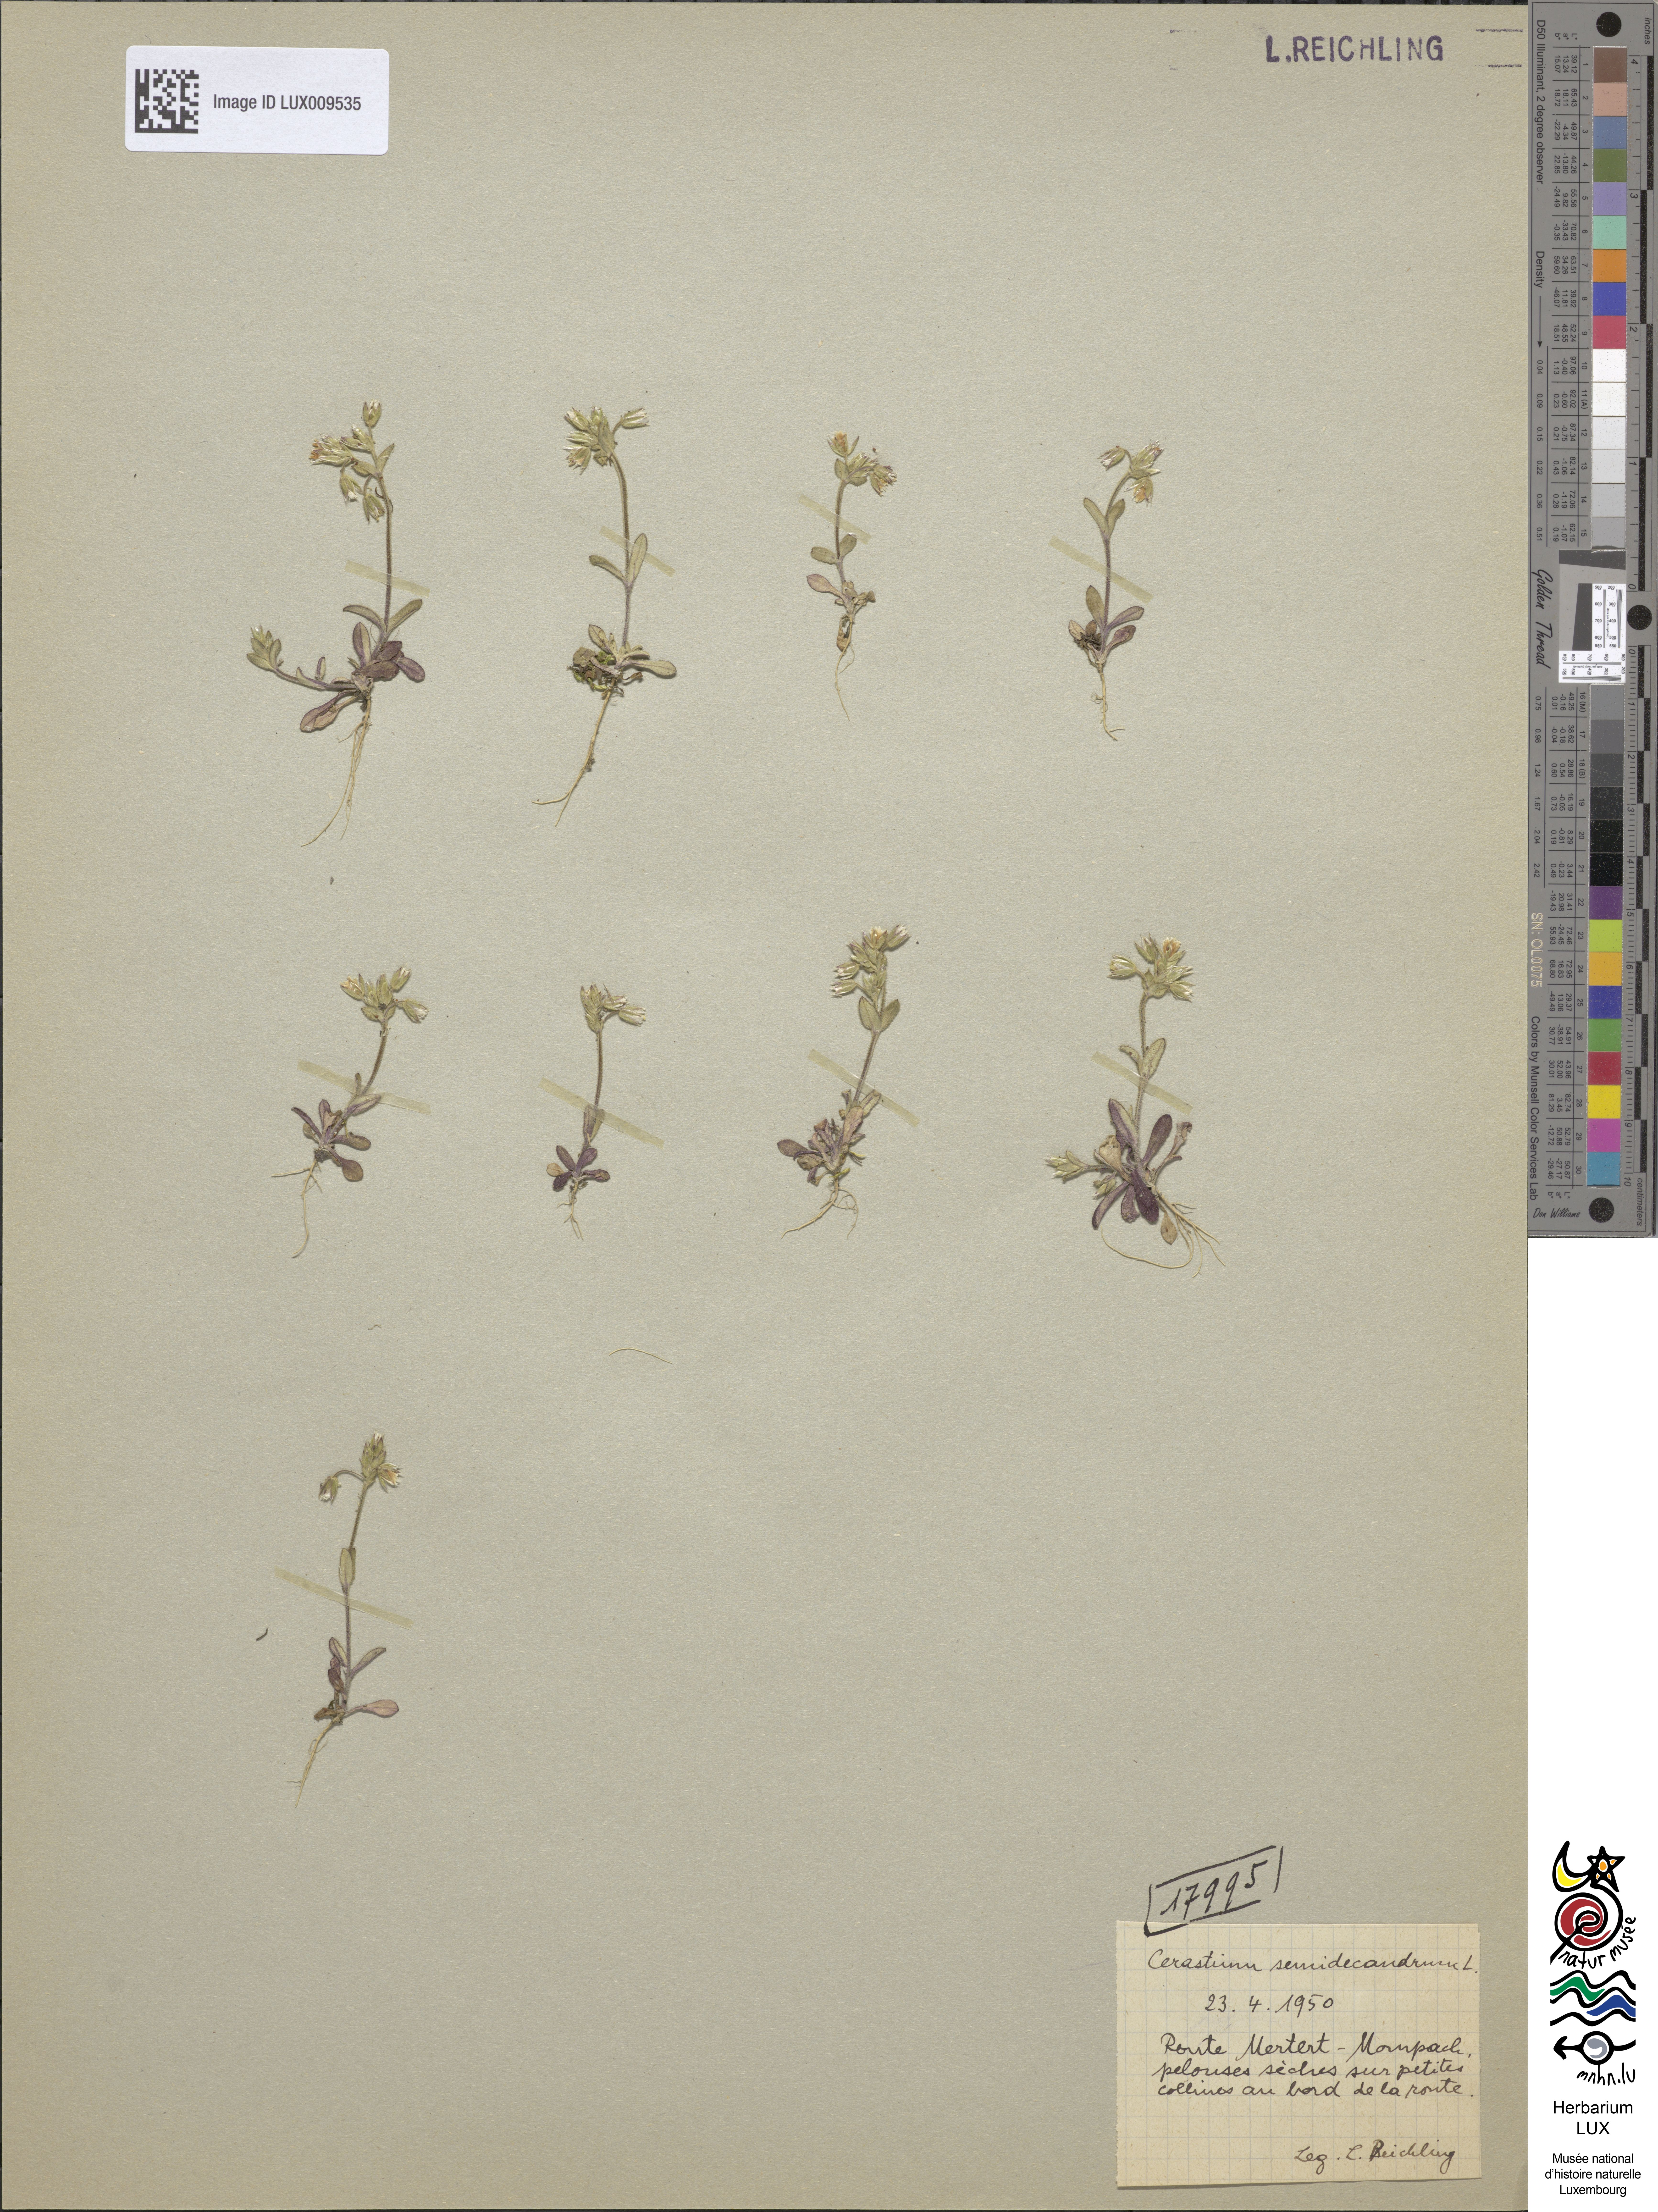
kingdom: Plantae
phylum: Tracheophyta
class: Magnoliopsida
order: Caryophyllales
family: Caryophyllaceae
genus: Cerastium
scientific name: Cerastium semidecandrum
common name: Little mouse-ear
